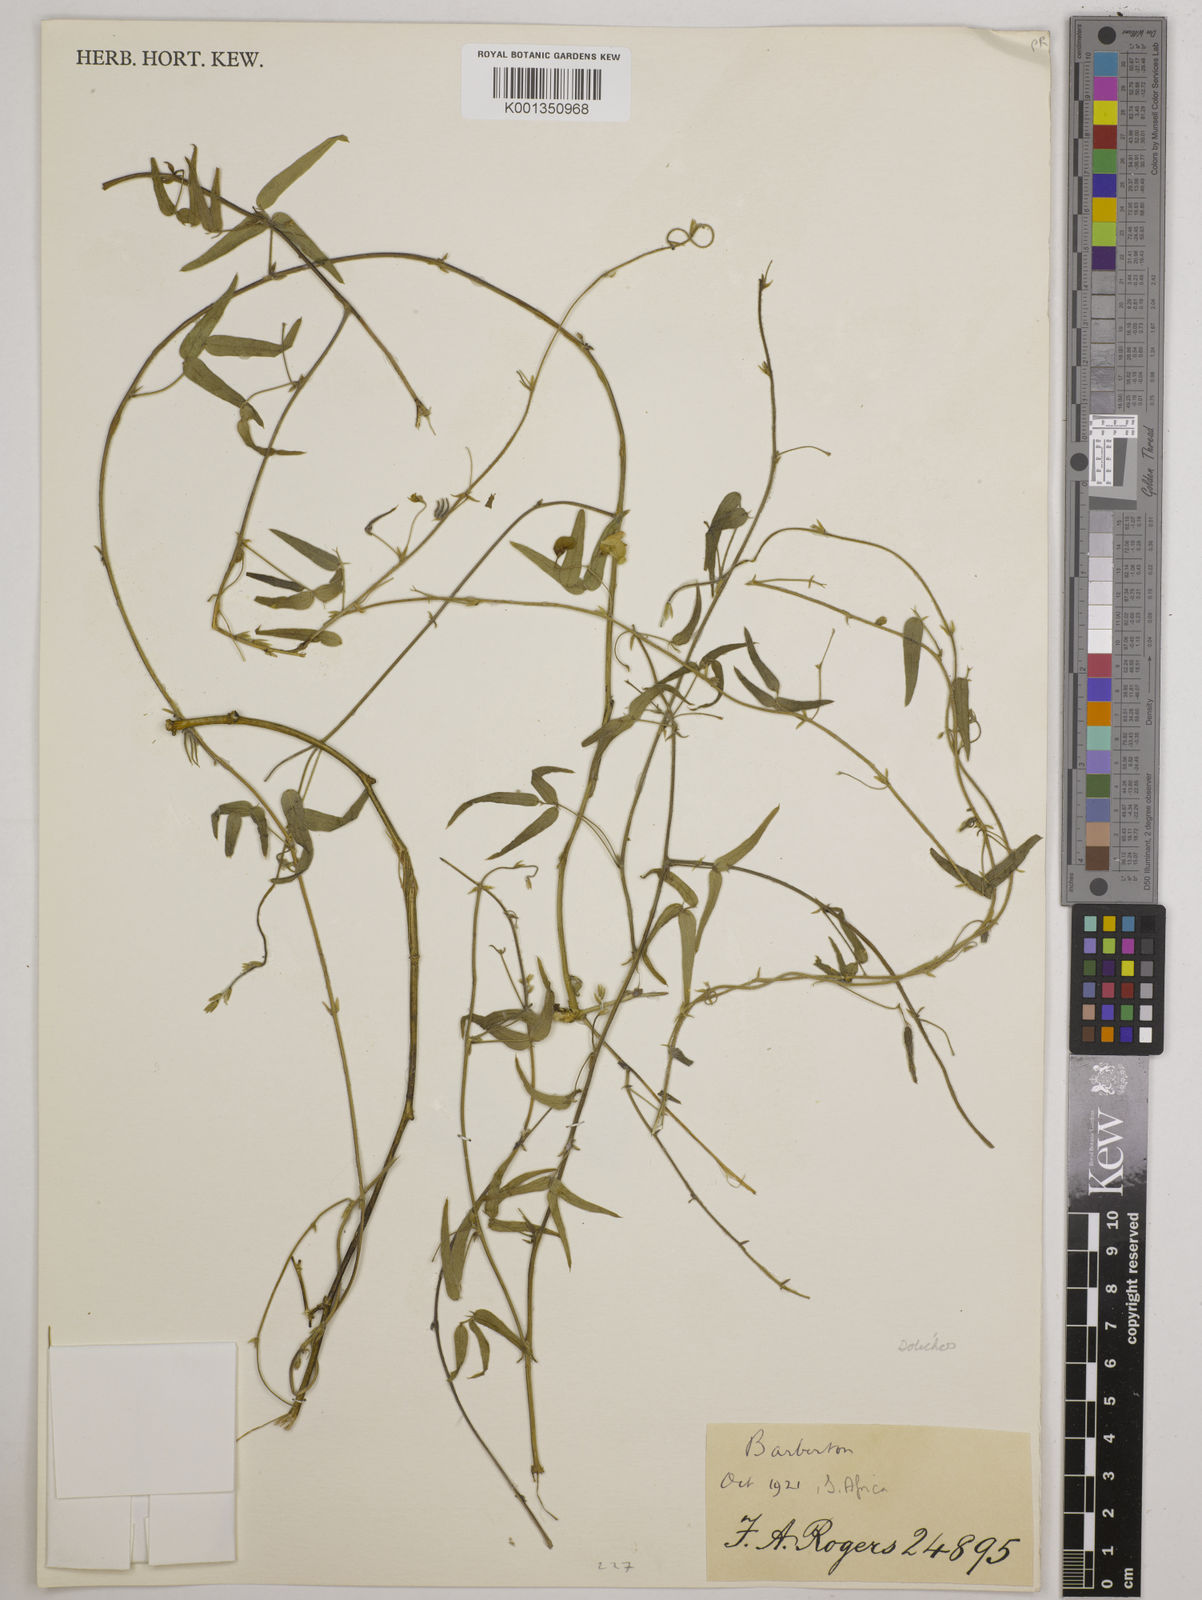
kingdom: Plantae
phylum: Tracheophyta
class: Magnoliopsida
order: Fabales
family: Fabaceae
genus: Dolichos
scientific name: Dolichos
